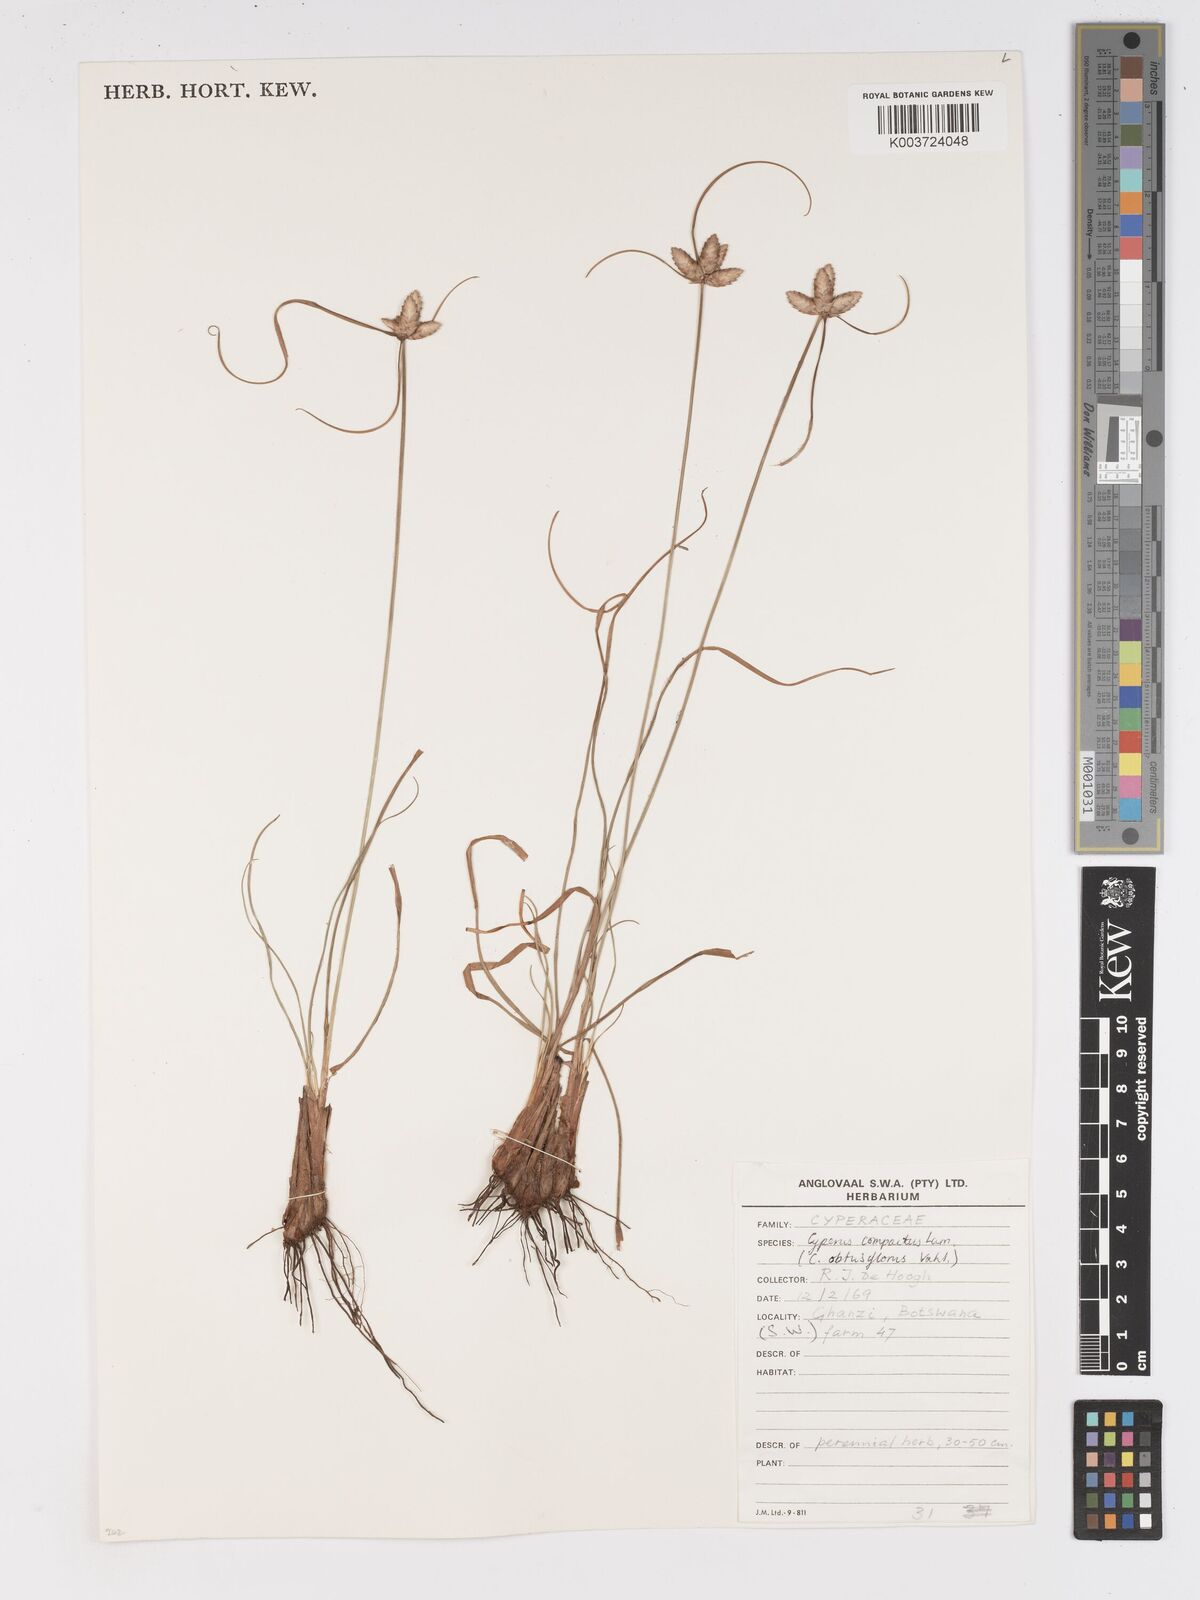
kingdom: Plantae
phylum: Tracheophyta
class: Liliopsida
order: Poales
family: Cyperaceae
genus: Cyperus
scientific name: Cyperus niveus
